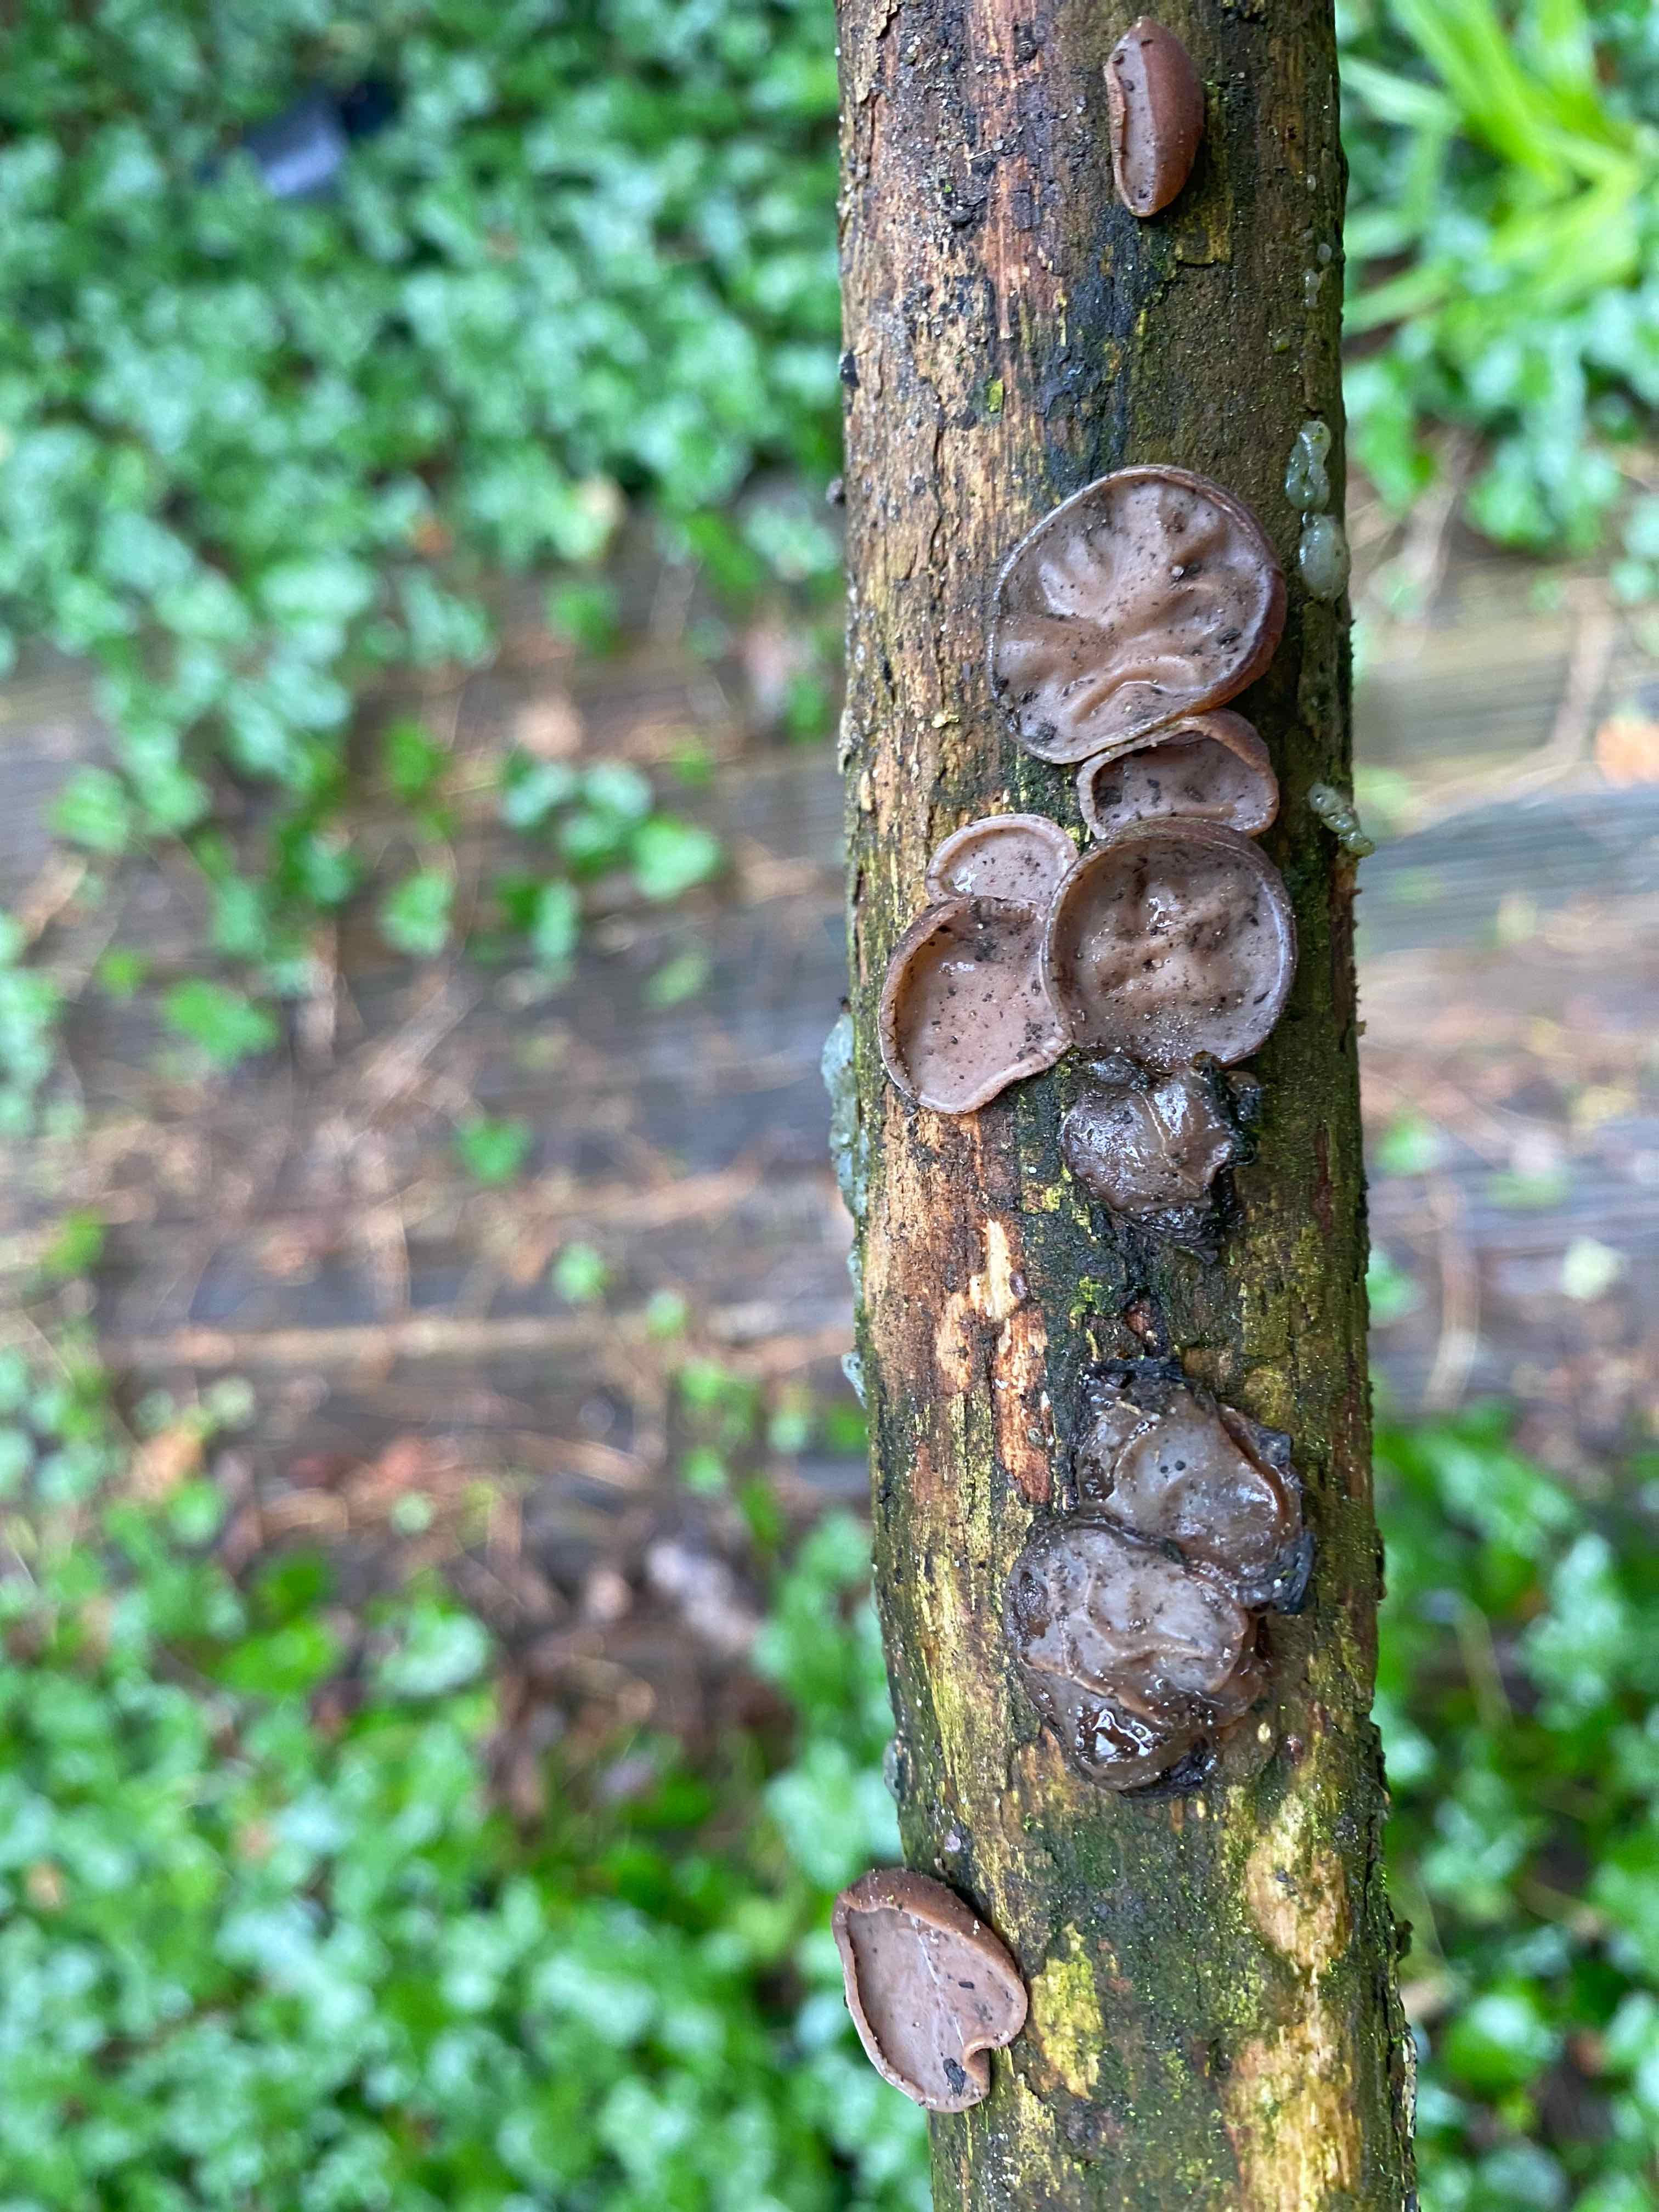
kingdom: Fungi
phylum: Basidiomycota
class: Agaricomycetes
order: Auriculariales
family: Auriculariaceae
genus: Auricularia
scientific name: Auricularia auricula-judae
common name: almindelig judasøre
